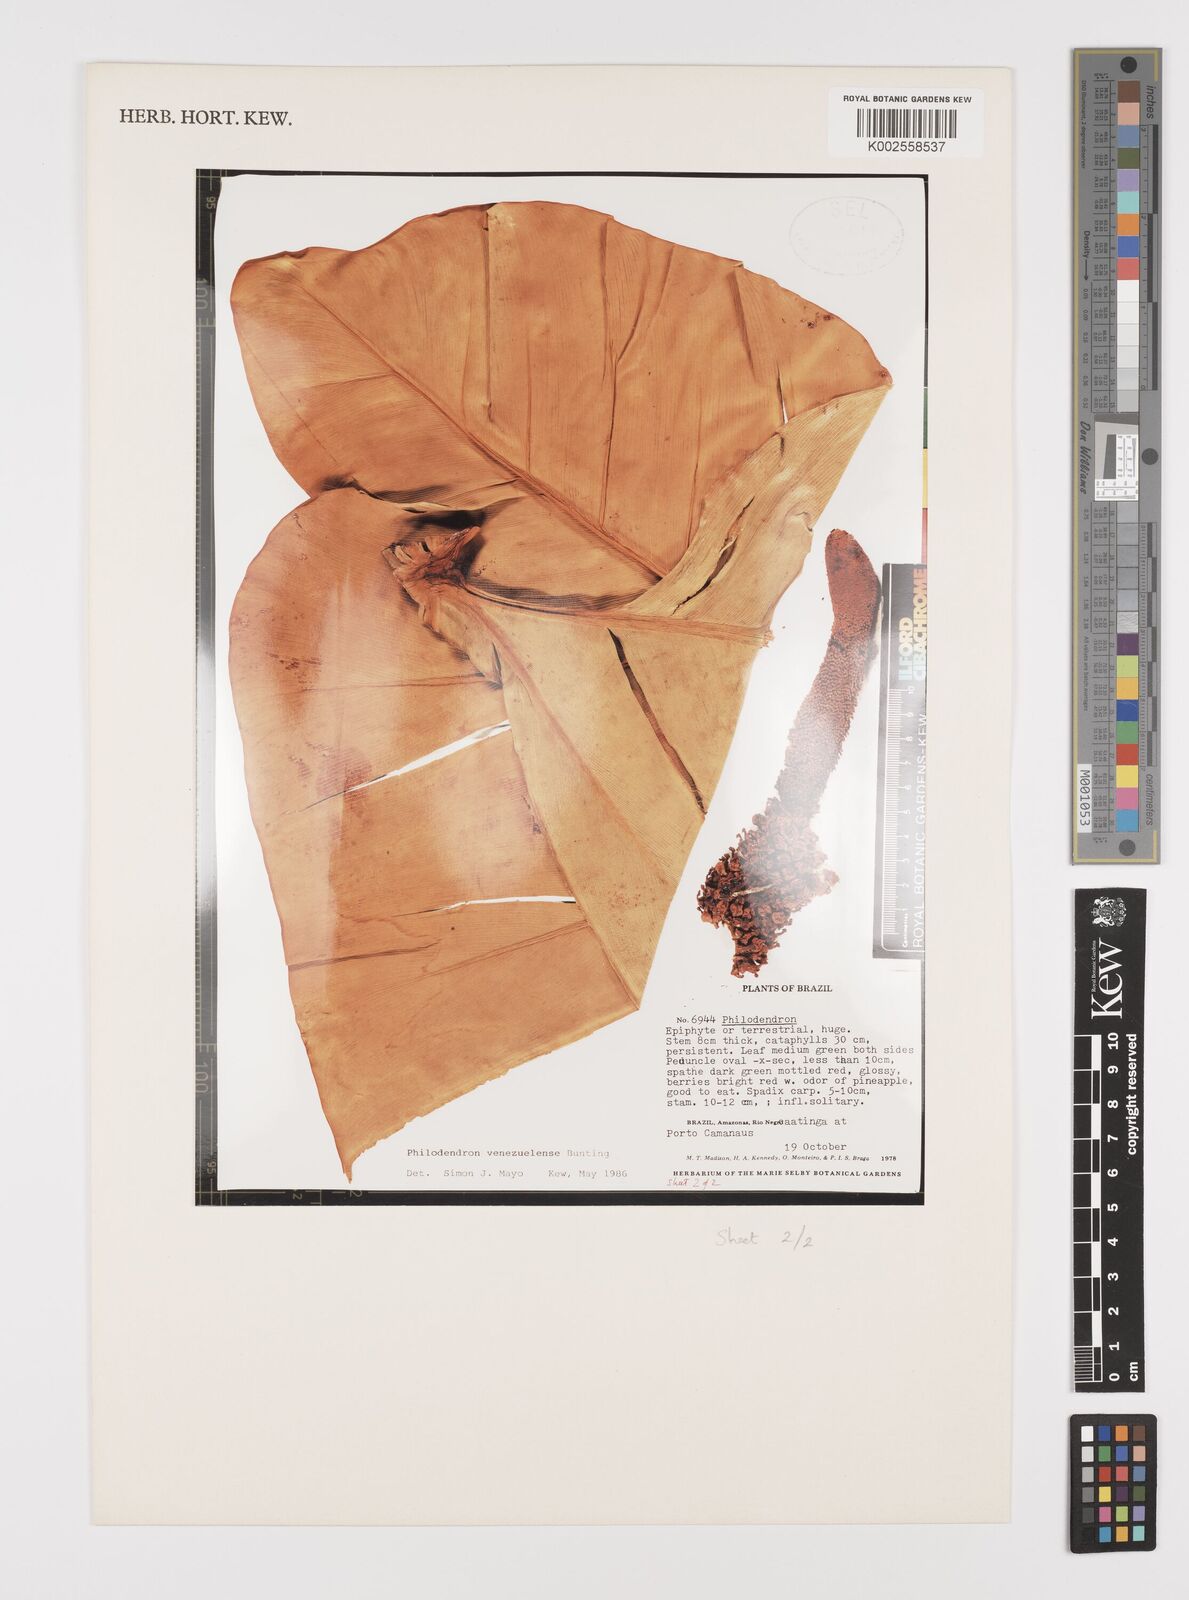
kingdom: Plantae
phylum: Tracheophyta
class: Liliopsida
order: Alismatales
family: Araceae
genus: Thaumatophyllum
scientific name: Thaumatophyllum venezuelense
